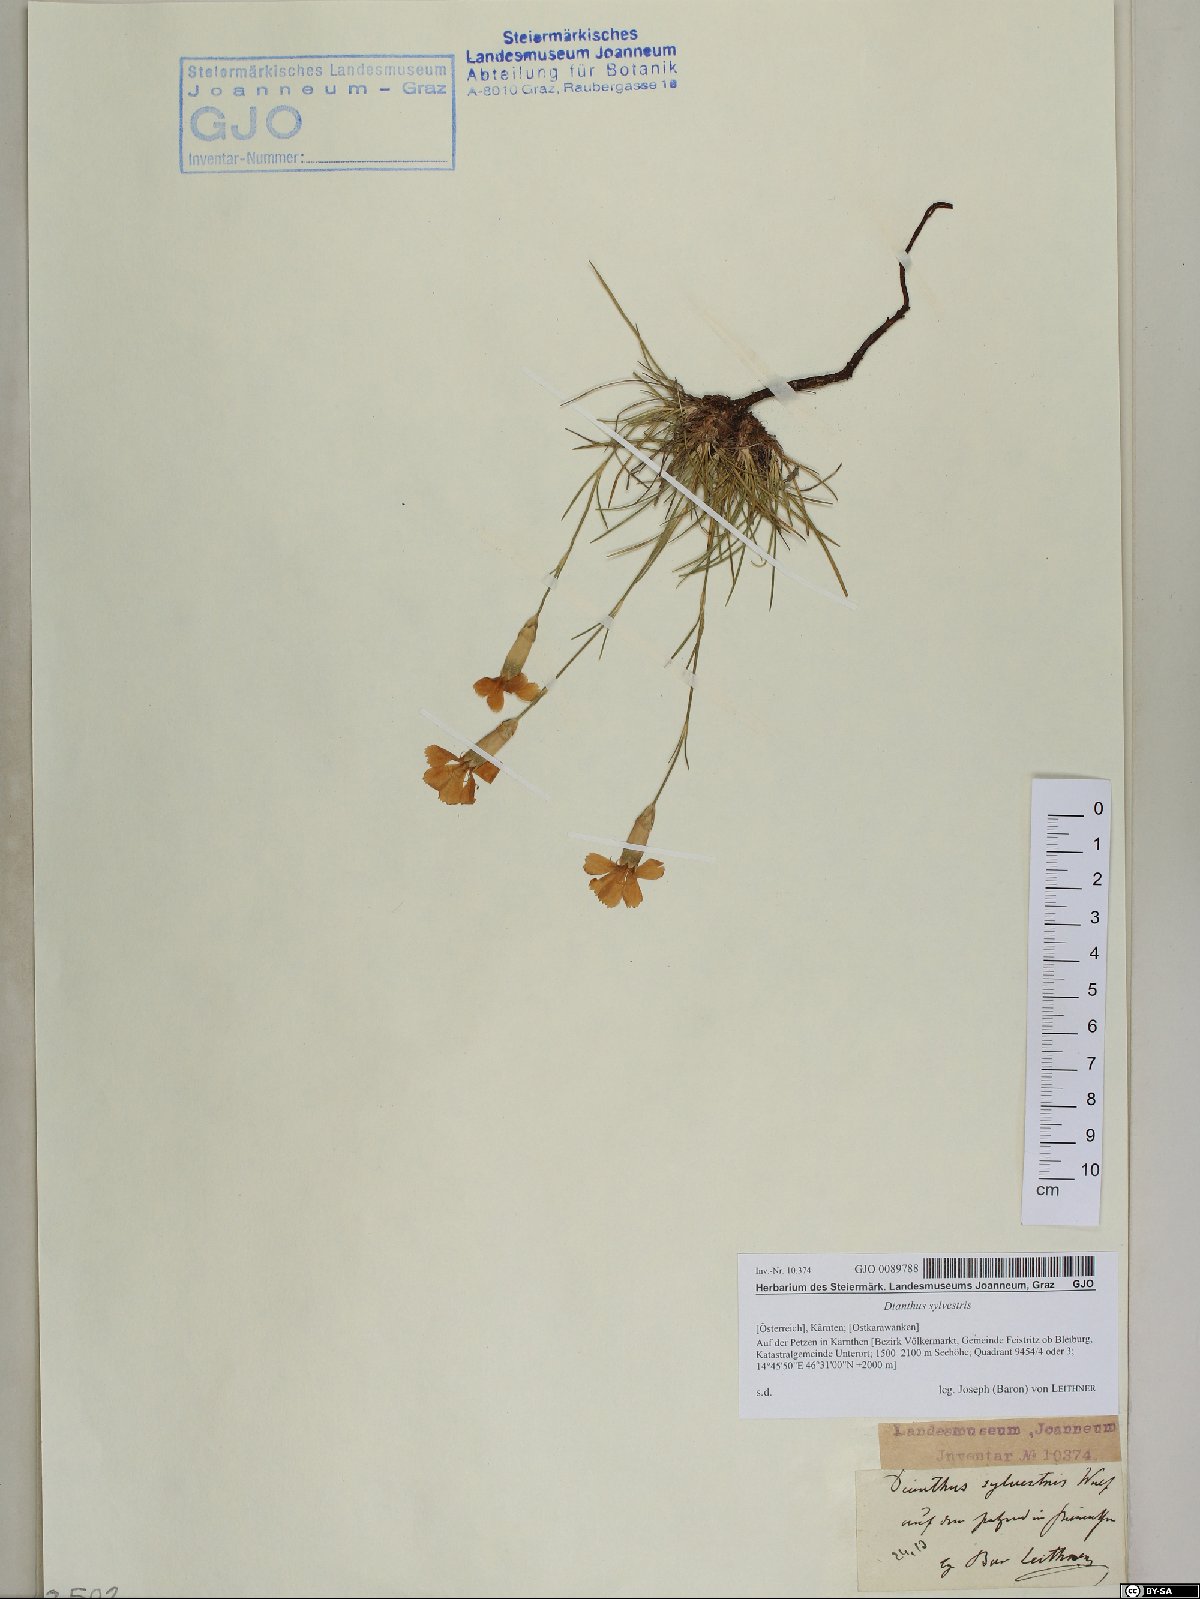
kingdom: Plantae
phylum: Tracheophyta
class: Magnoliopsida
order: Caryophyllales
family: Caryophyllaceae
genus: Dianthus
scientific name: Dianthus sylvestris
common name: Wood pink
